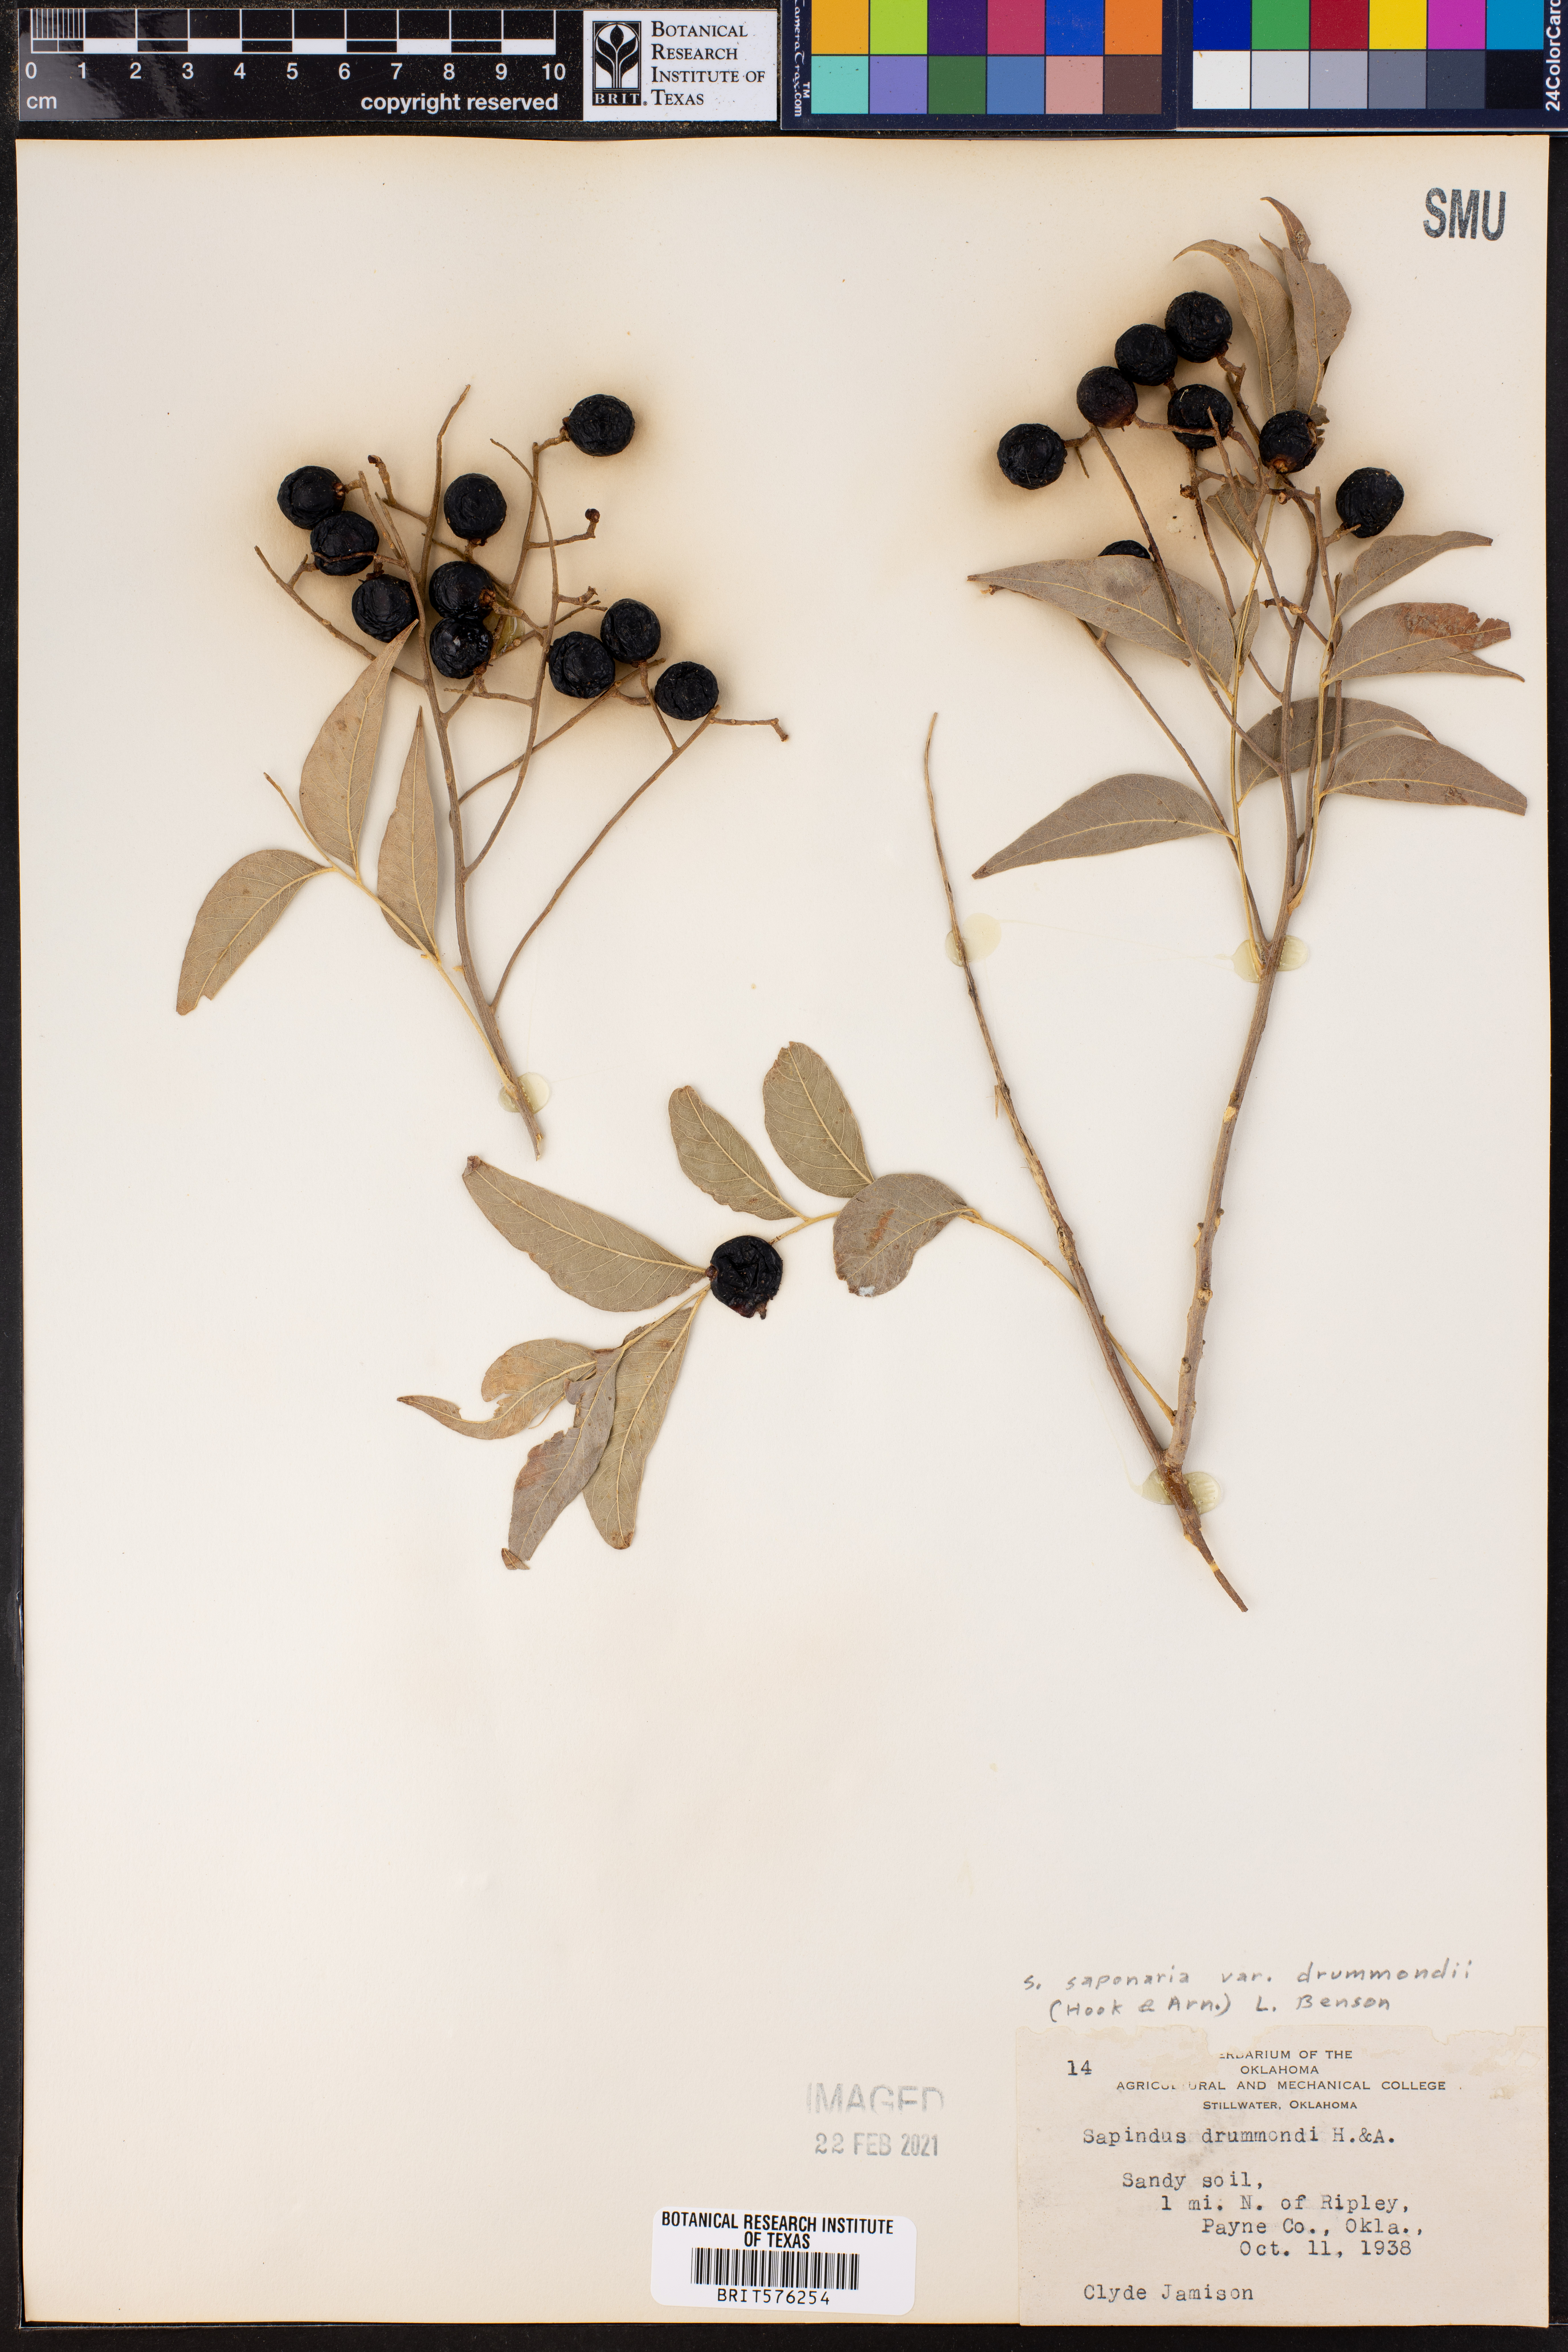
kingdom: Plantae
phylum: Tracheophyta
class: Magnoliopsida
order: Sapindales
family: Sapindaceae
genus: Sapindus
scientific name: Sapindus drummondii
